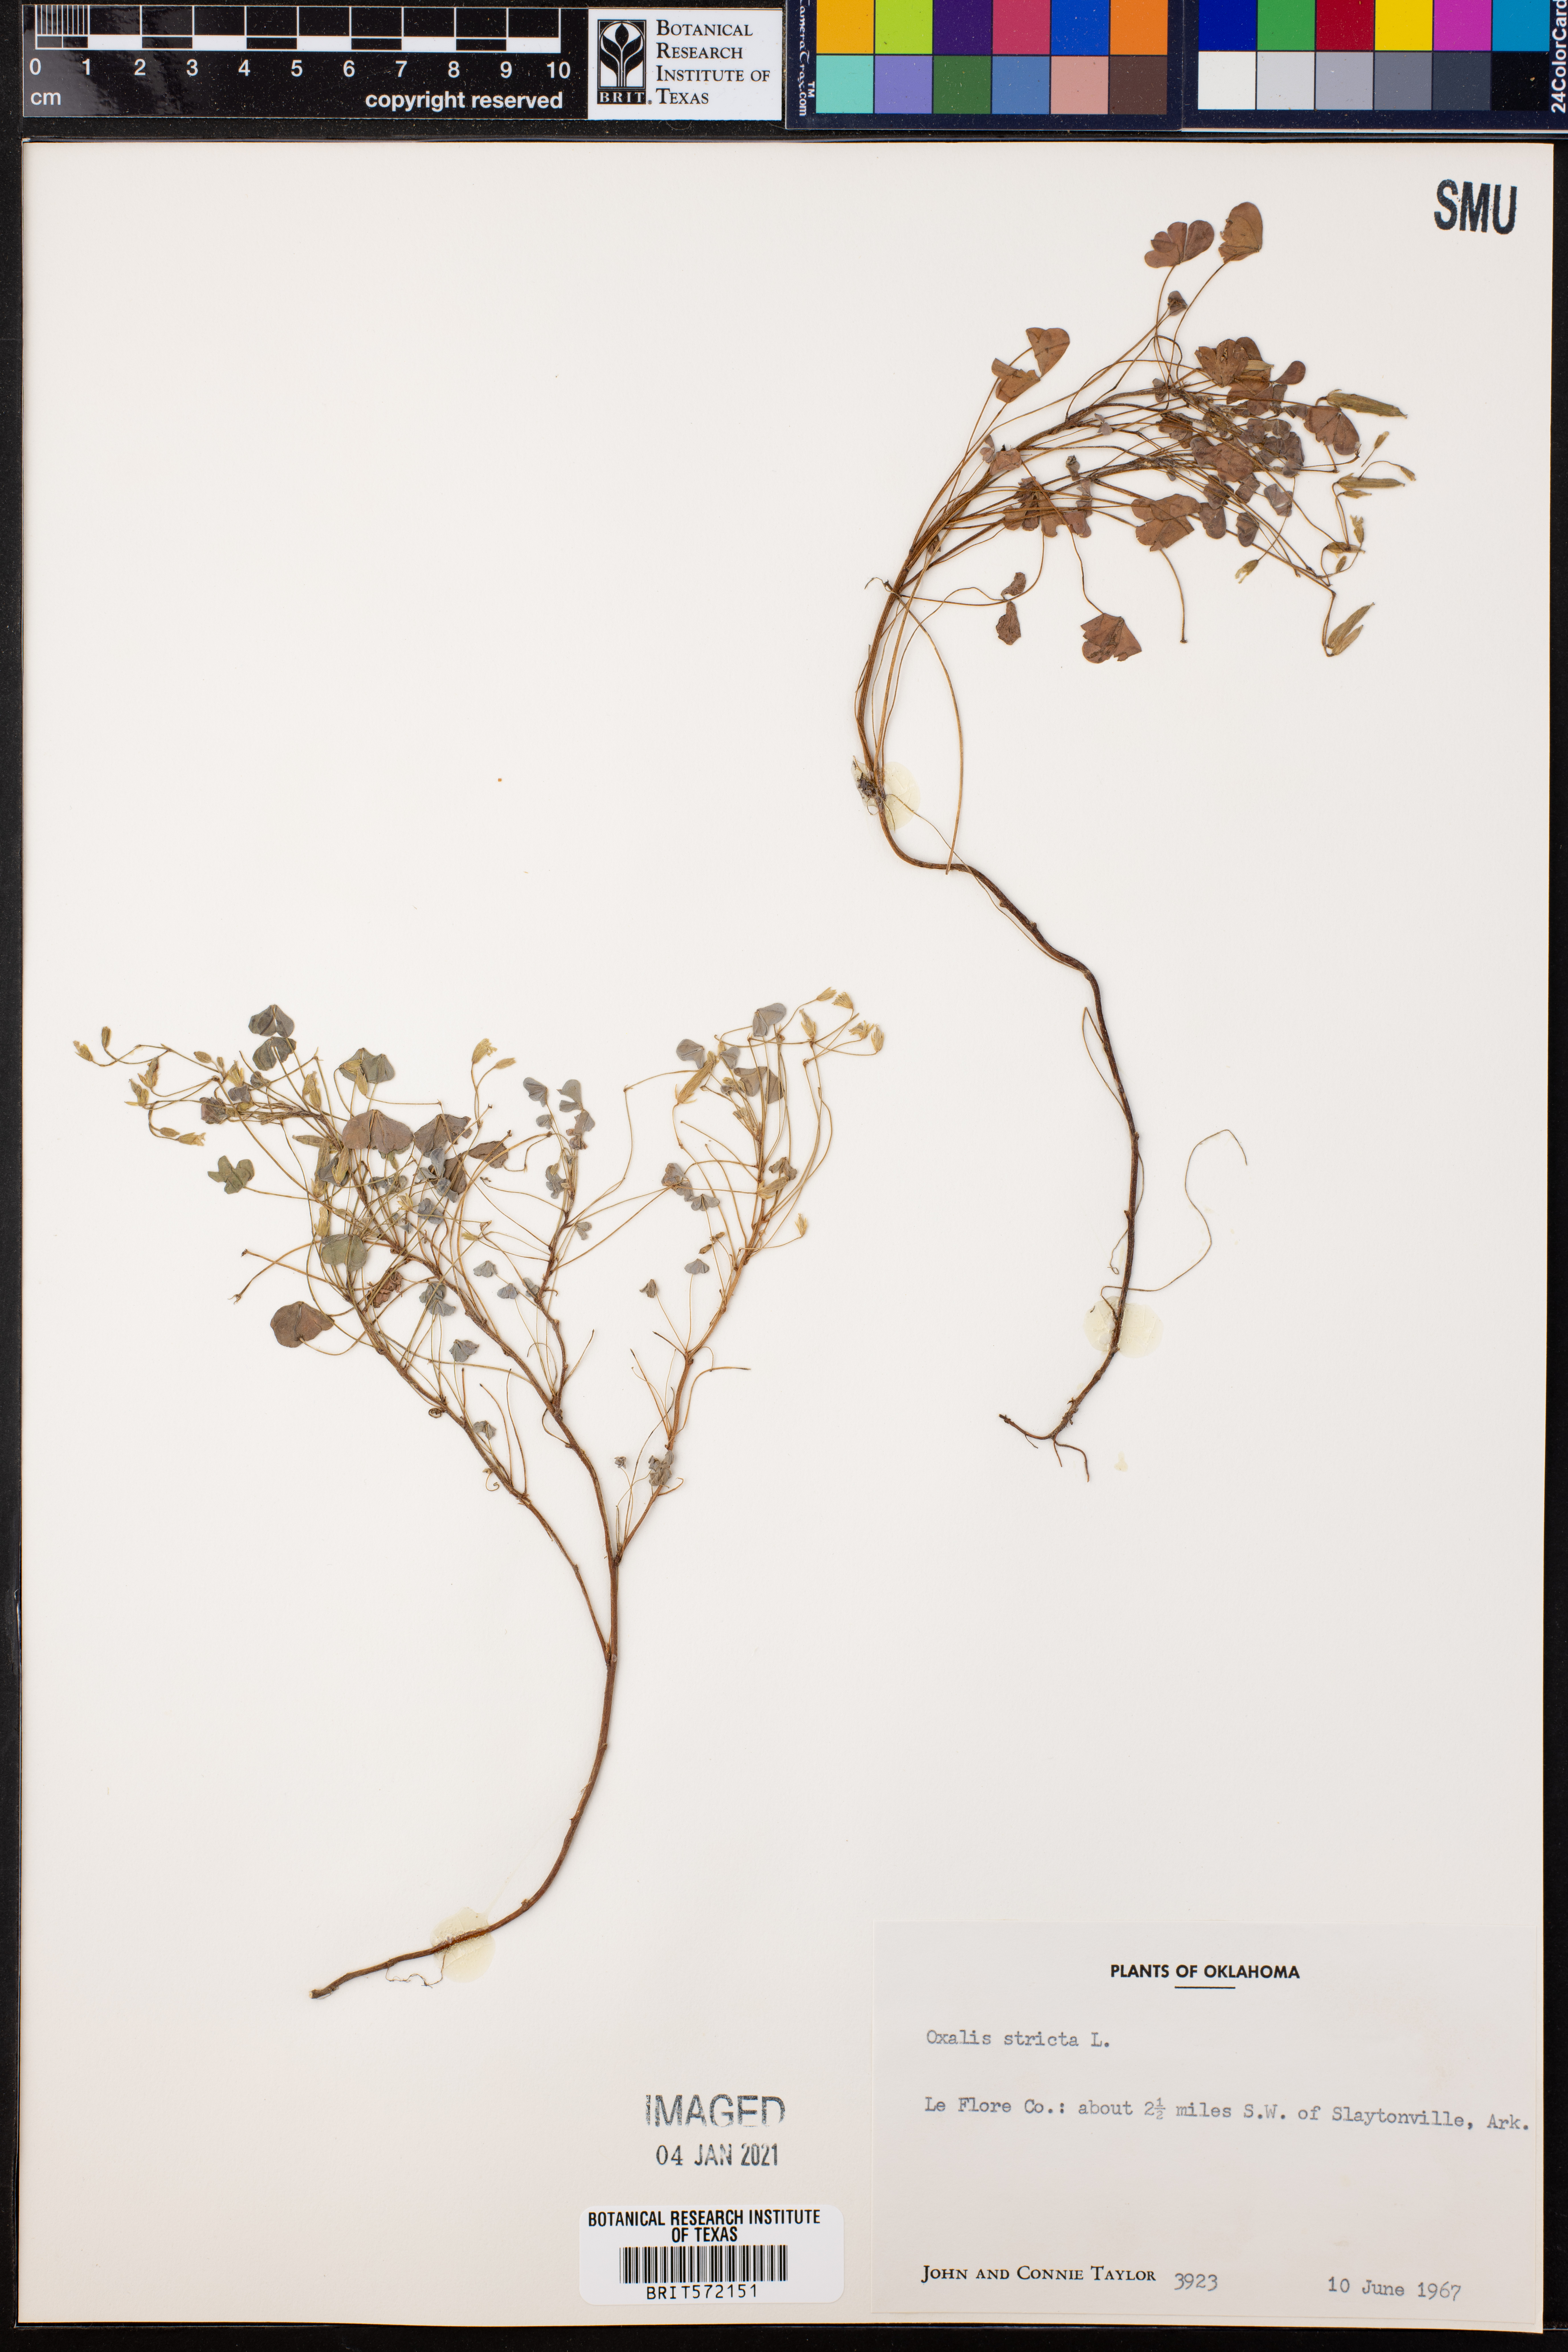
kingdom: Plantae
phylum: Tracheophyta
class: Magnoliopsida
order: Oxalidales
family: Oxalidaceae
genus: Oxalis
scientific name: Oxalis stricta
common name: Upright yellow-sorrel
